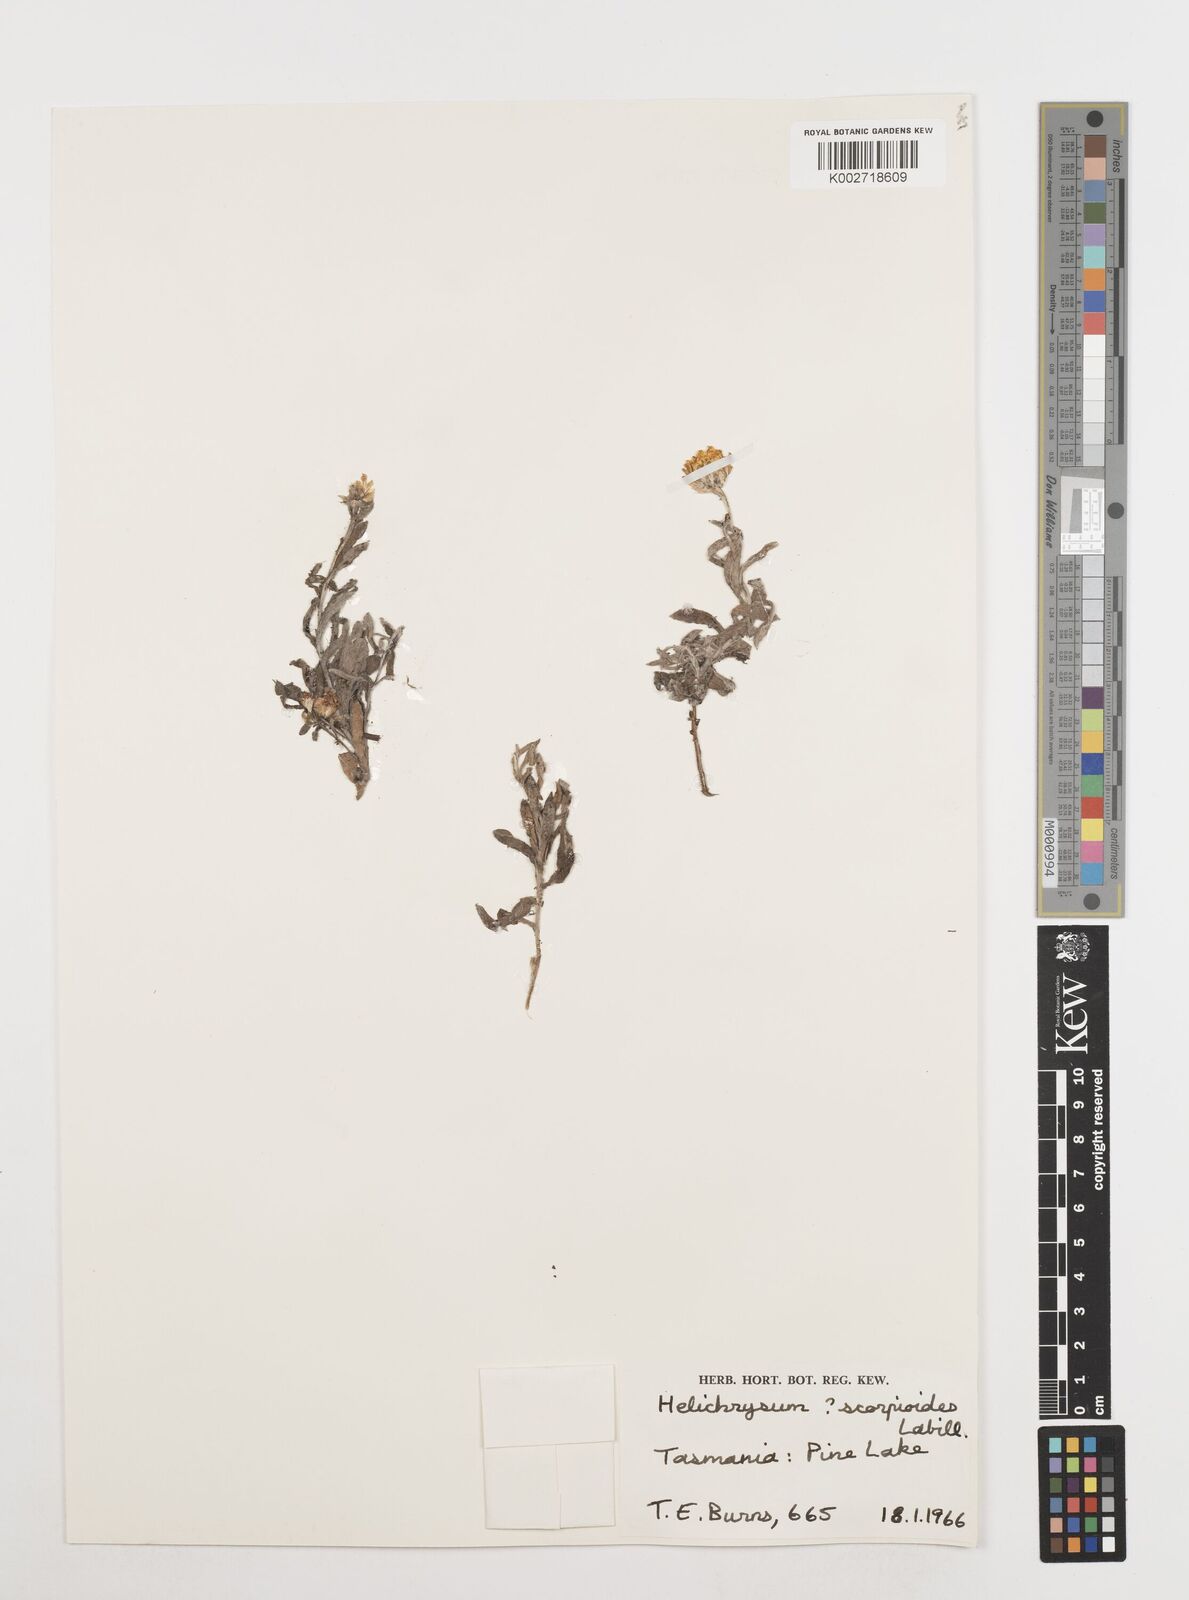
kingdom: Plantae
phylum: Tracheophyta
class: Magnoliopsida
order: Asterales
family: Asteraceae
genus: Coronidium
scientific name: Coronidium scorpioides
